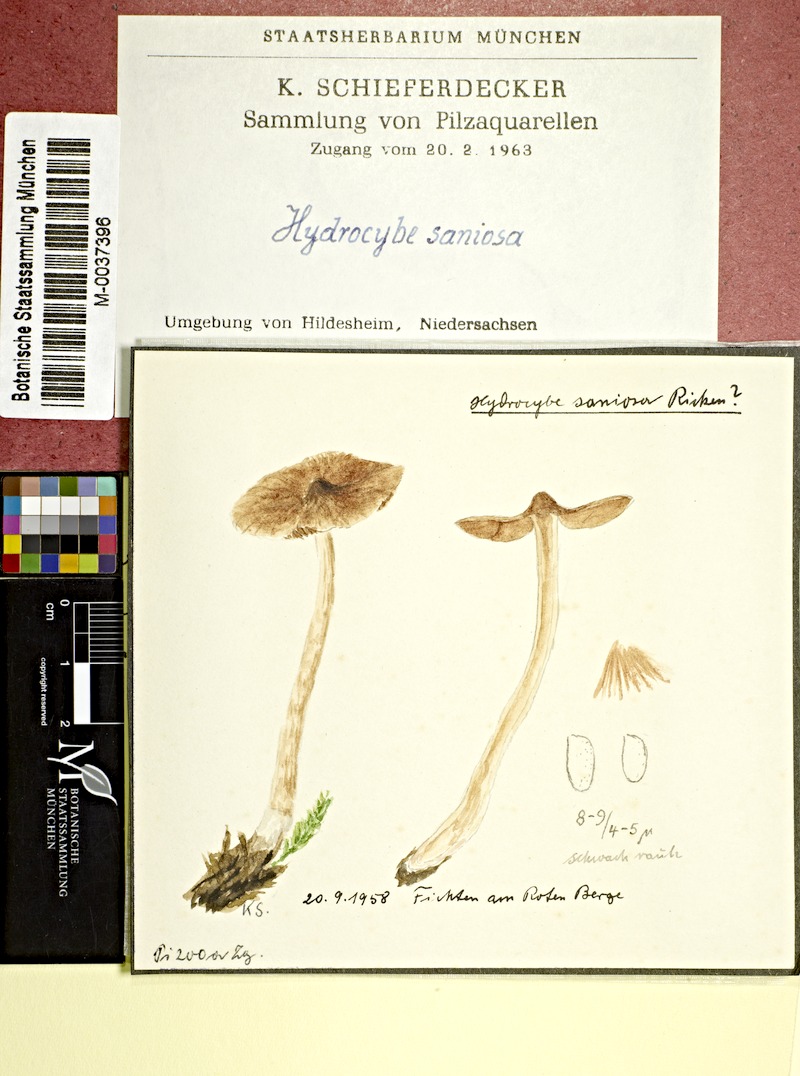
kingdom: Fungi
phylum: Basidiomycota
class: Agaricomycetes
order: Agaricales
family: Cortinariaceae
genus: Cortinarius
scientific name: Cortinarius saniosus
